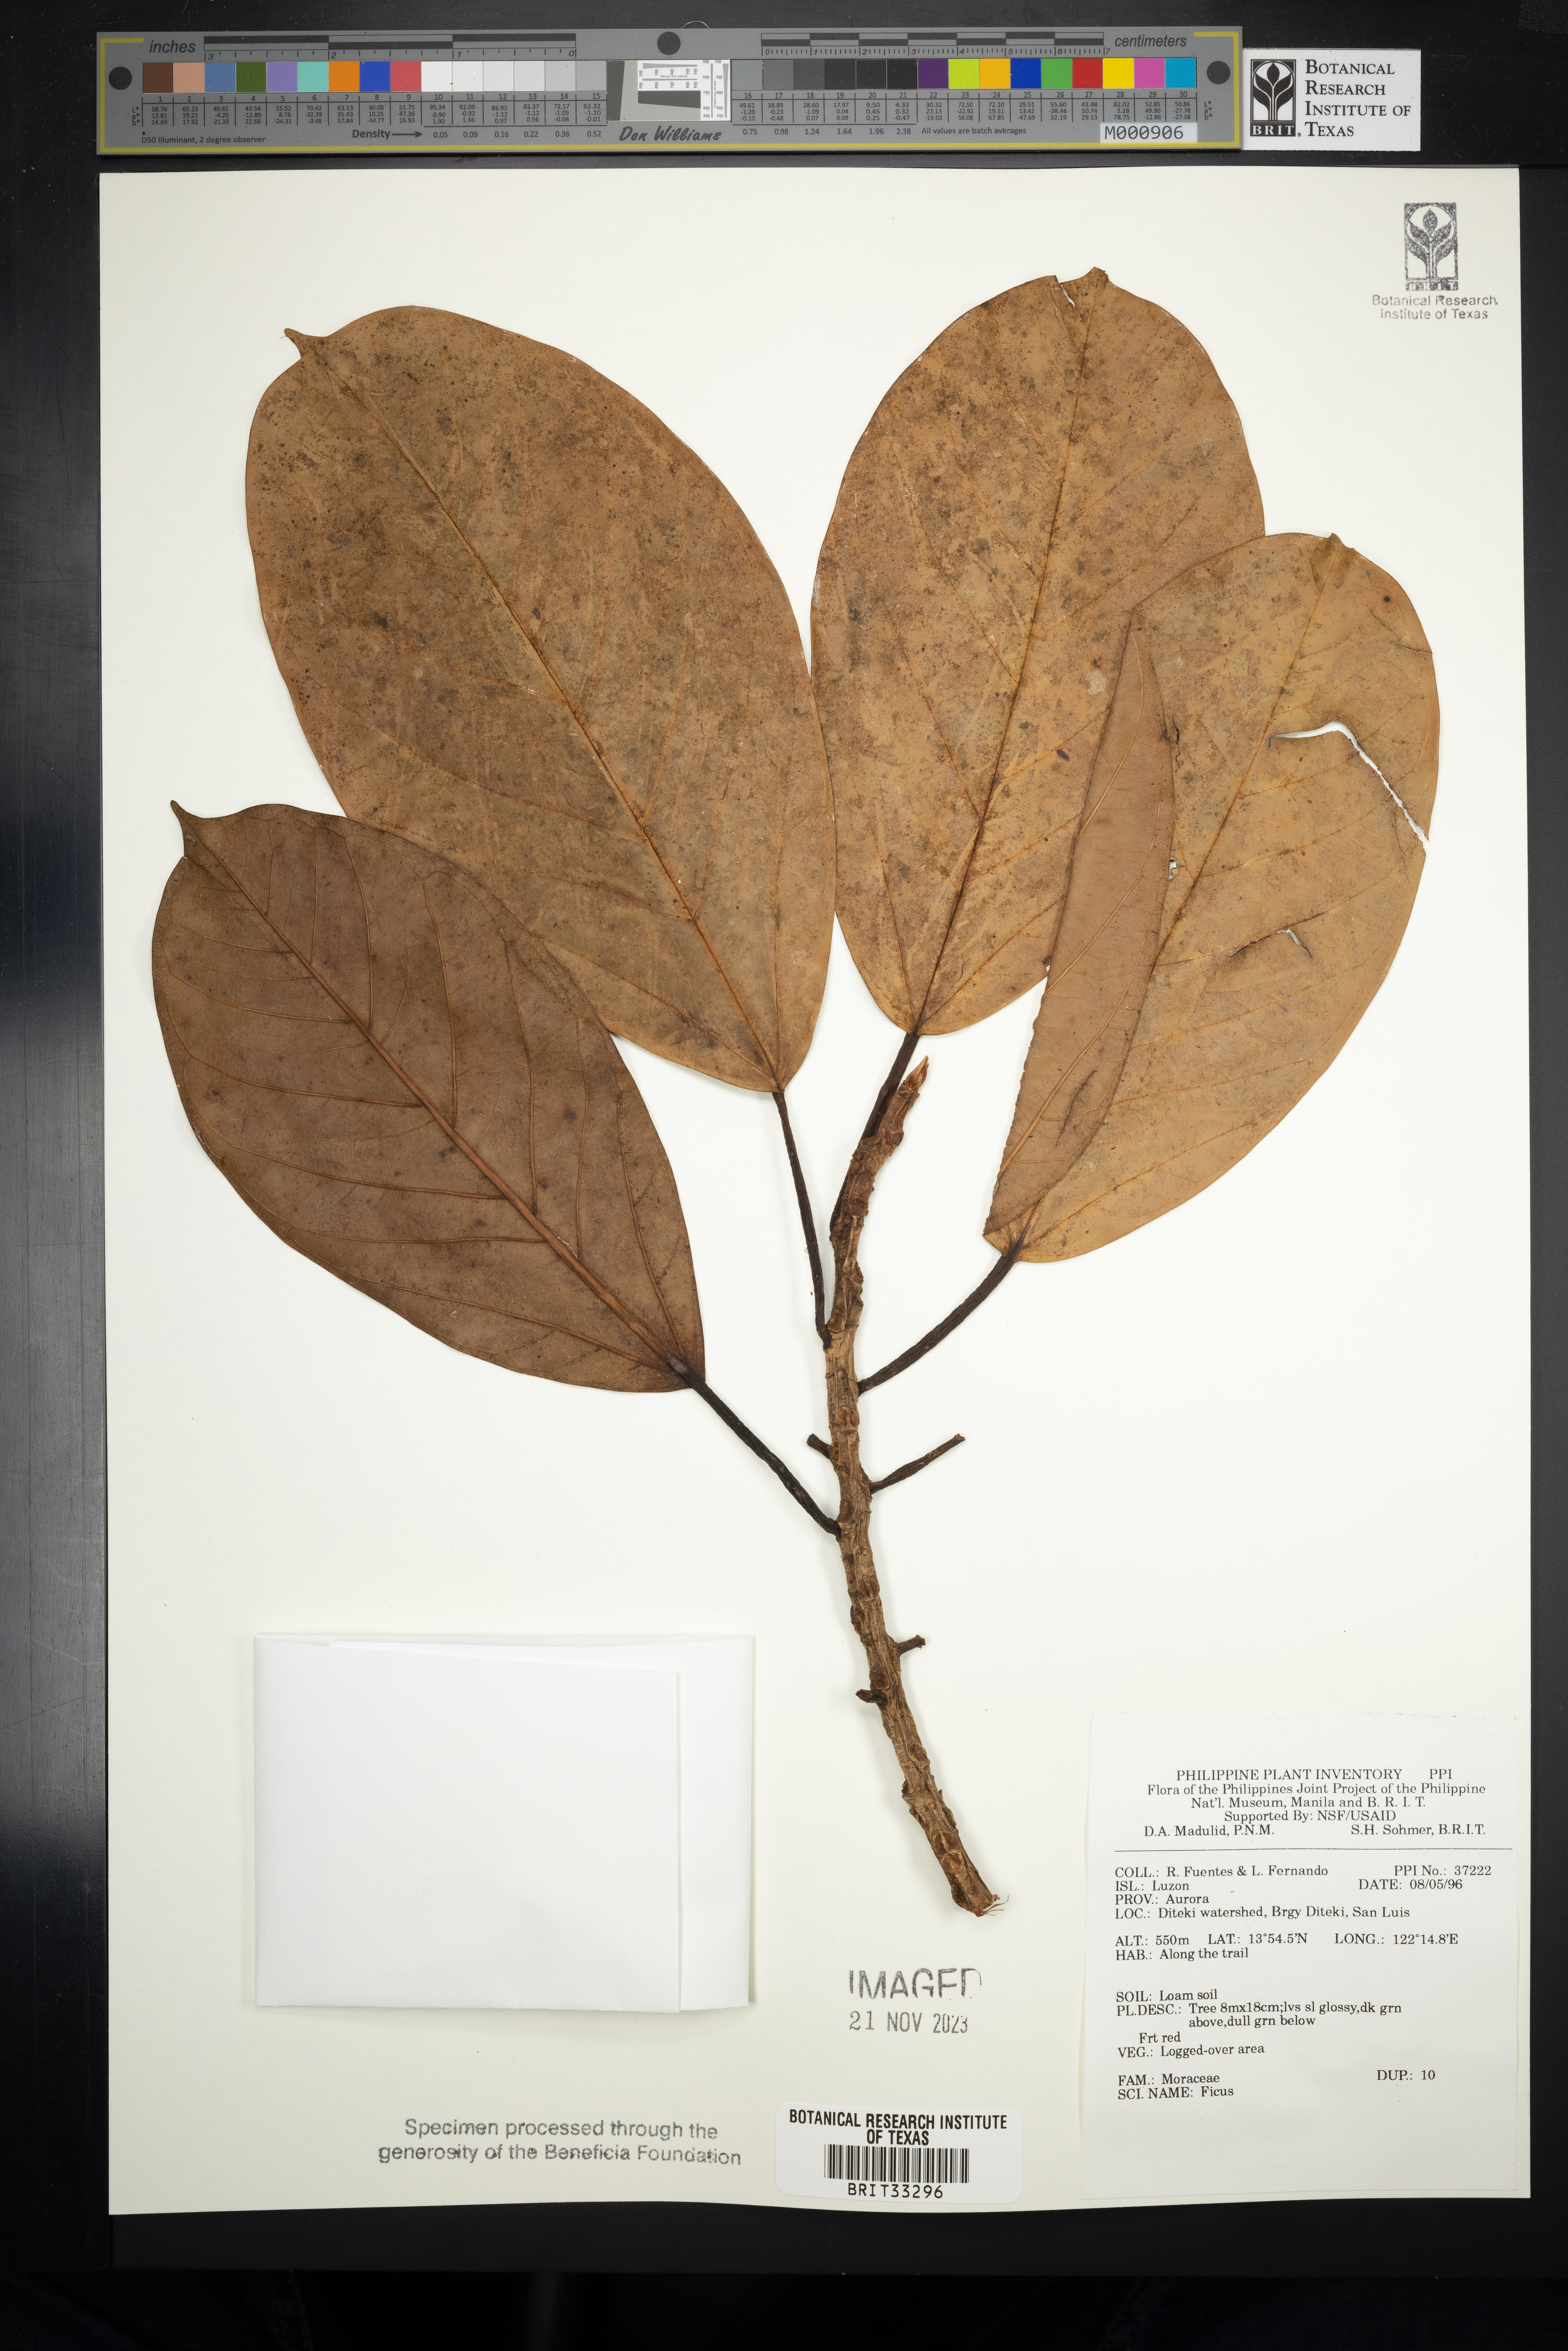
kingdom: Plantae
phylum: Tracheophyta
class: Magnoliopsida
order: Rosales
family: Moraceae
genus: Ficus
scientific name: Ficus
